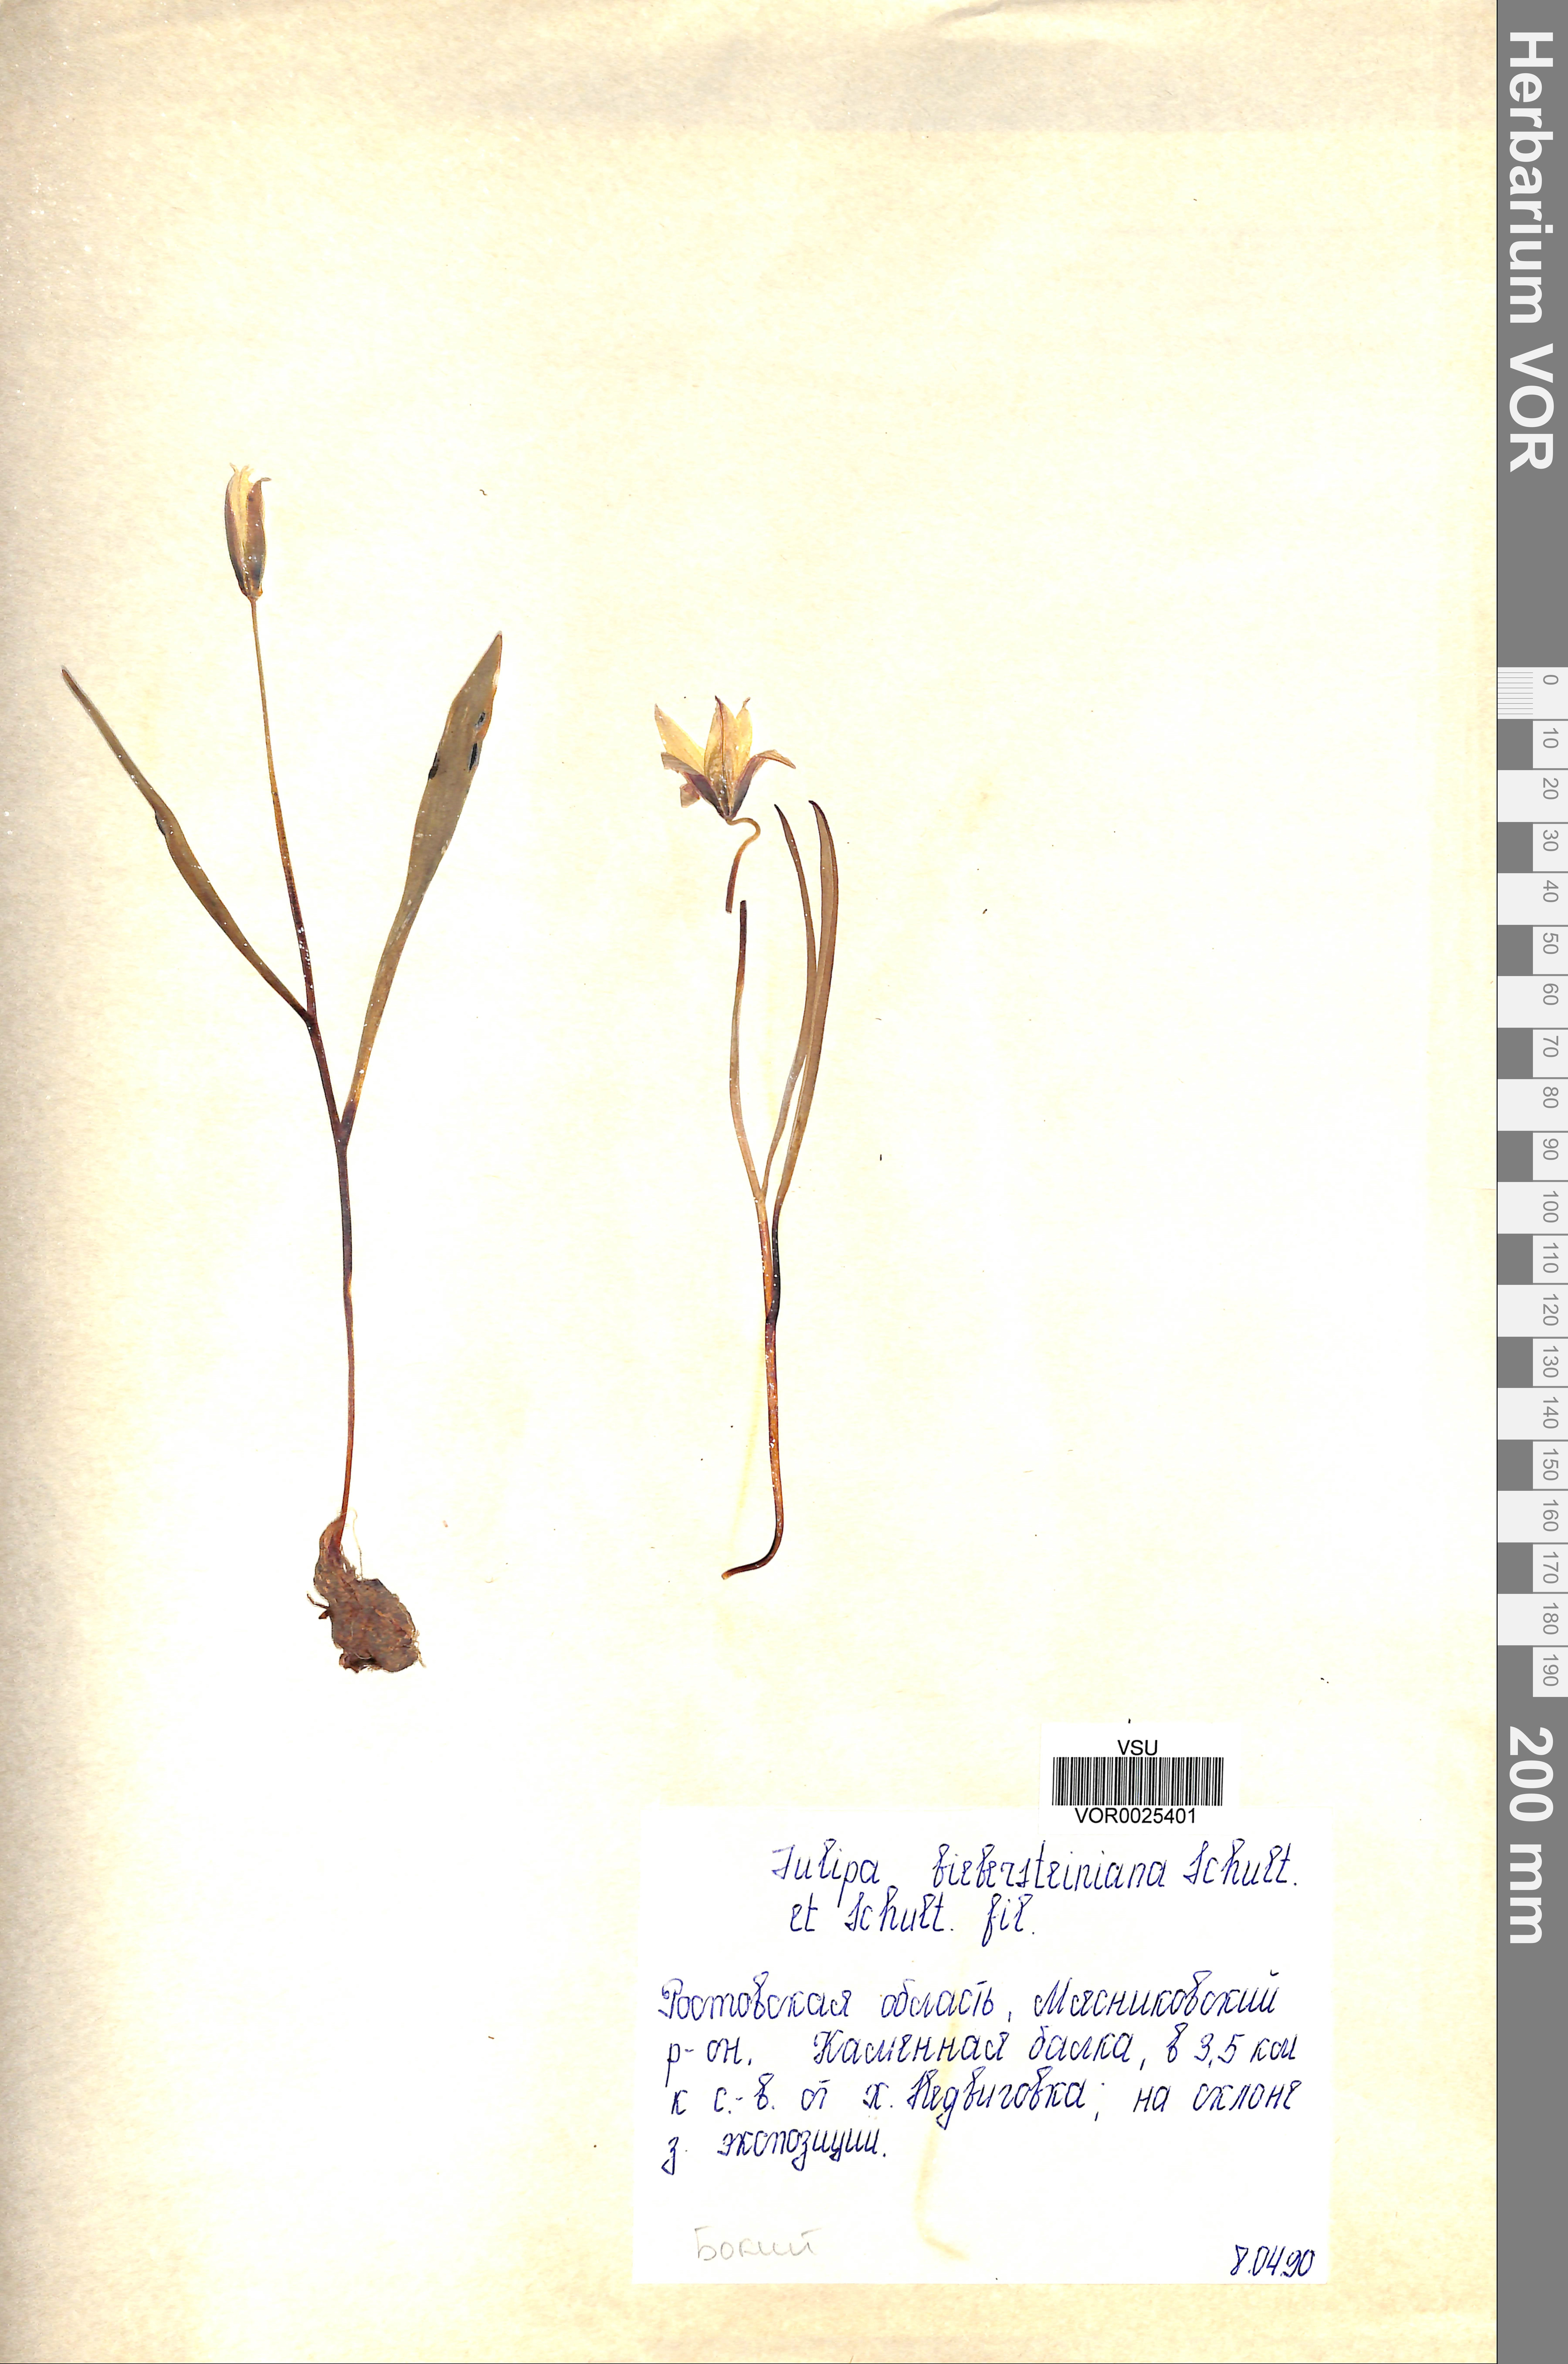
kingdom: Plantae
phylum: Tracheophyta
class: Liliopsida
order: Liliales
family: Liliaceae
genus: Tulipa
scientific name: Tulipa sylvestris
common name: Wild tulip
